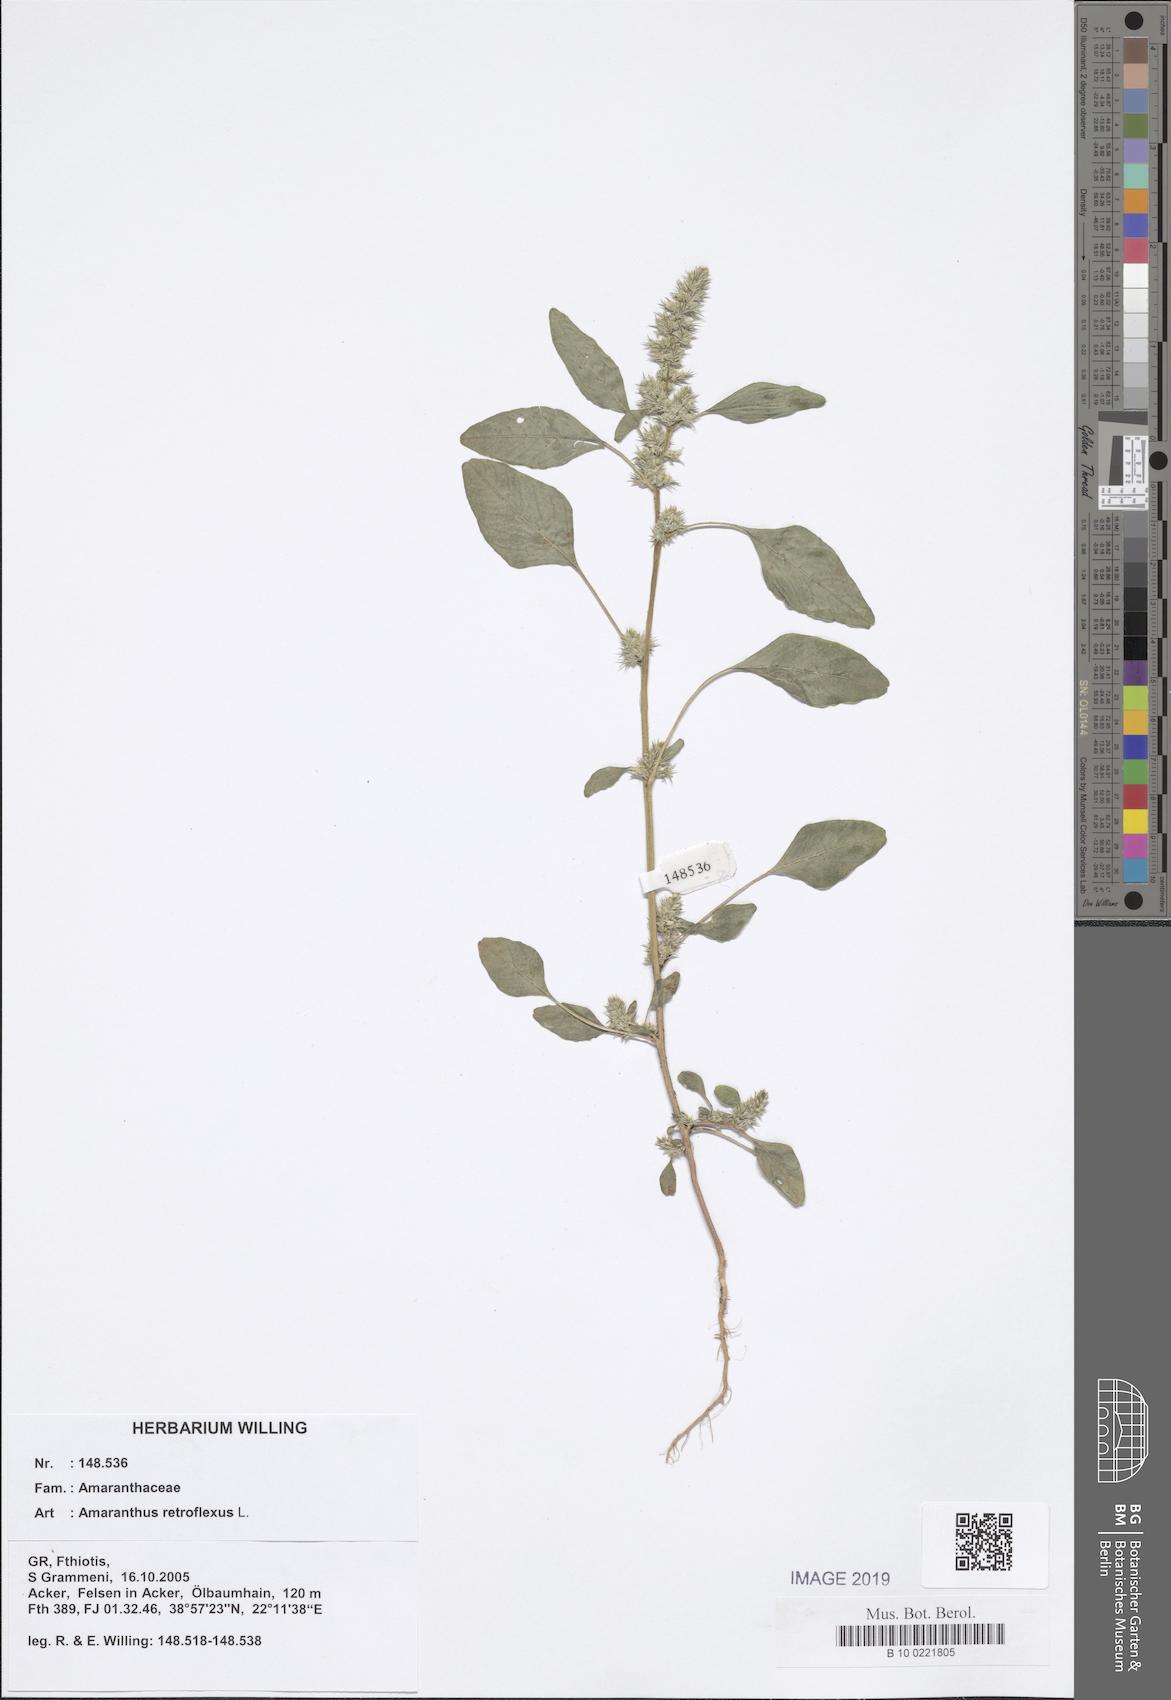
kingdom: Plantae
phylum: Tracheophyta
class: Magnoliopsida
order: Caryophyllales
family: Amaranthaceae
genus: Amaranthus
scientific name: Amaranthus retroflexus
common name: Redroot amaranth
